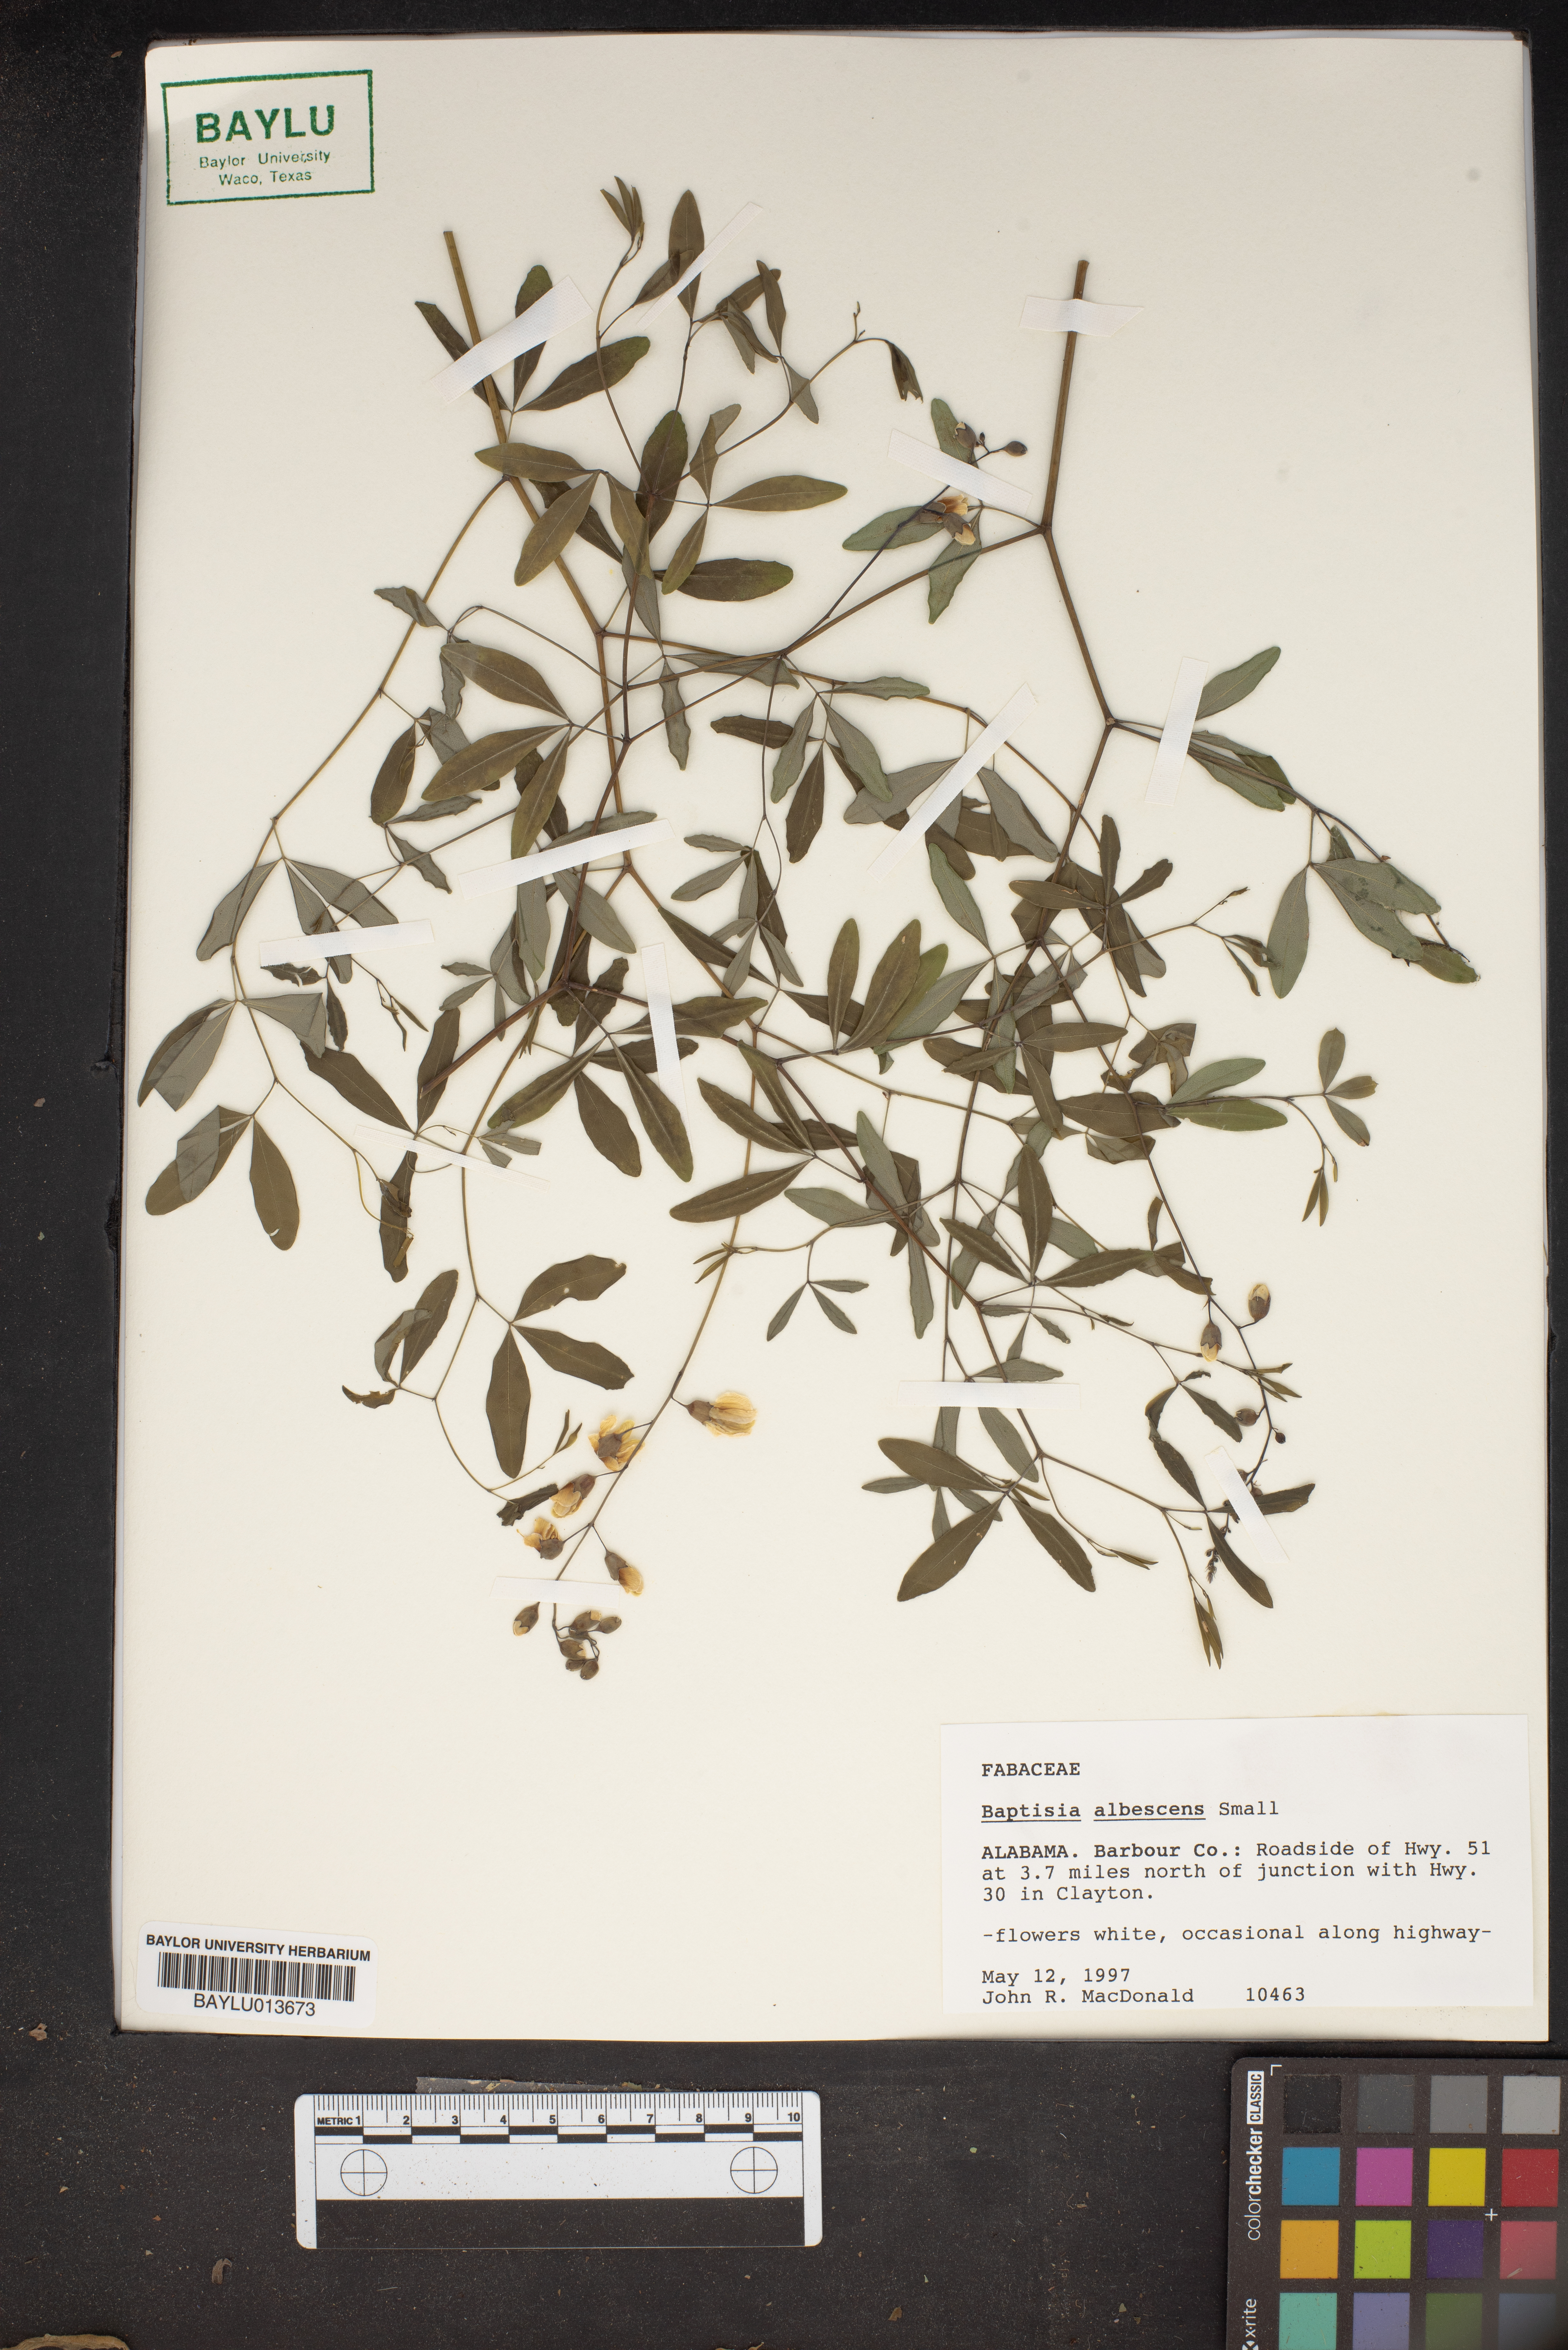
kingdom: Plantae
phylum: Tracheophyta
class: Magnoliopsida
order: Fabales
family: Fabaceae
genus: Baptisia
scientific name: Baptisia albescens
